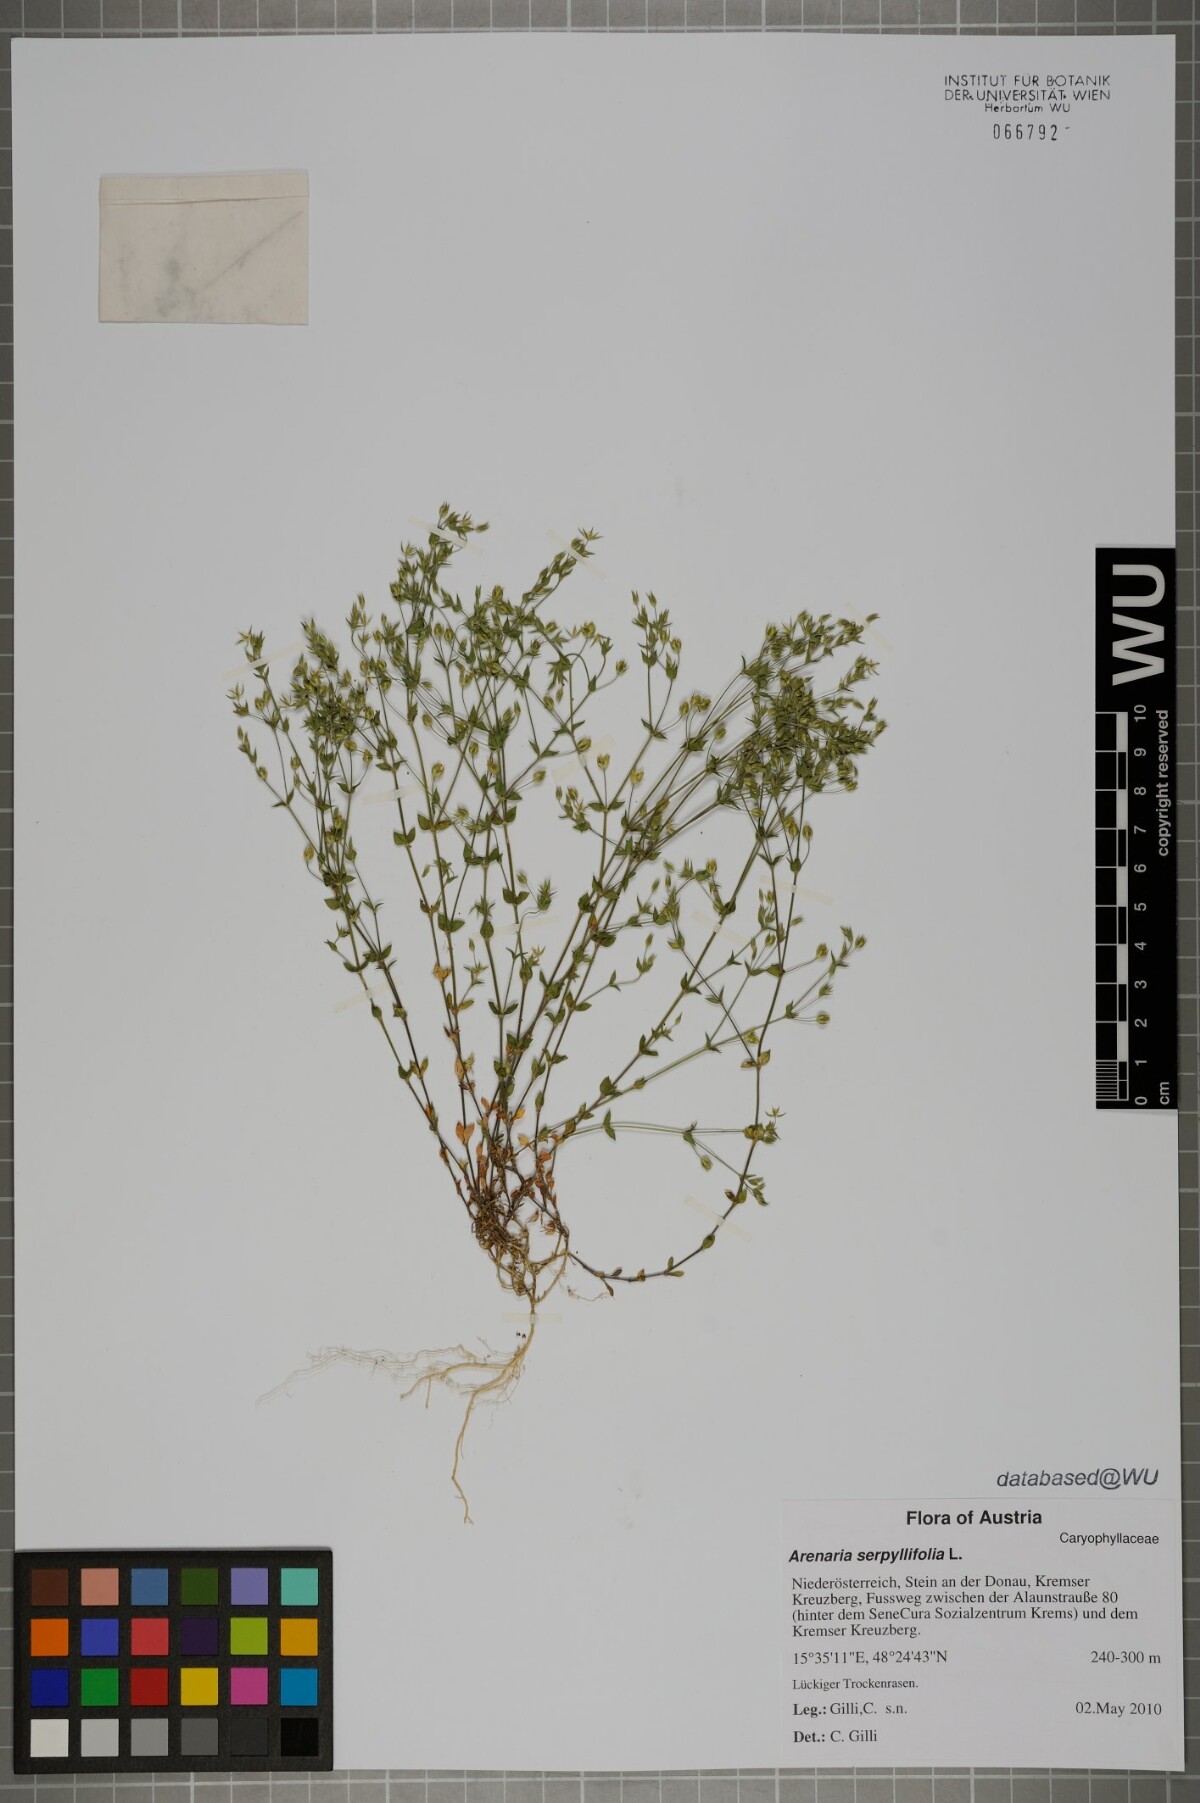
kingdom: Plantae
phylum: Tracheophyta
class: Magnoliopsida
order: Caryophyllales
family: Caryophyllaceae
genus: Arenaria
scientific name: Arenaria serpyllifolia
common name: Thyme-leaved sandwort
